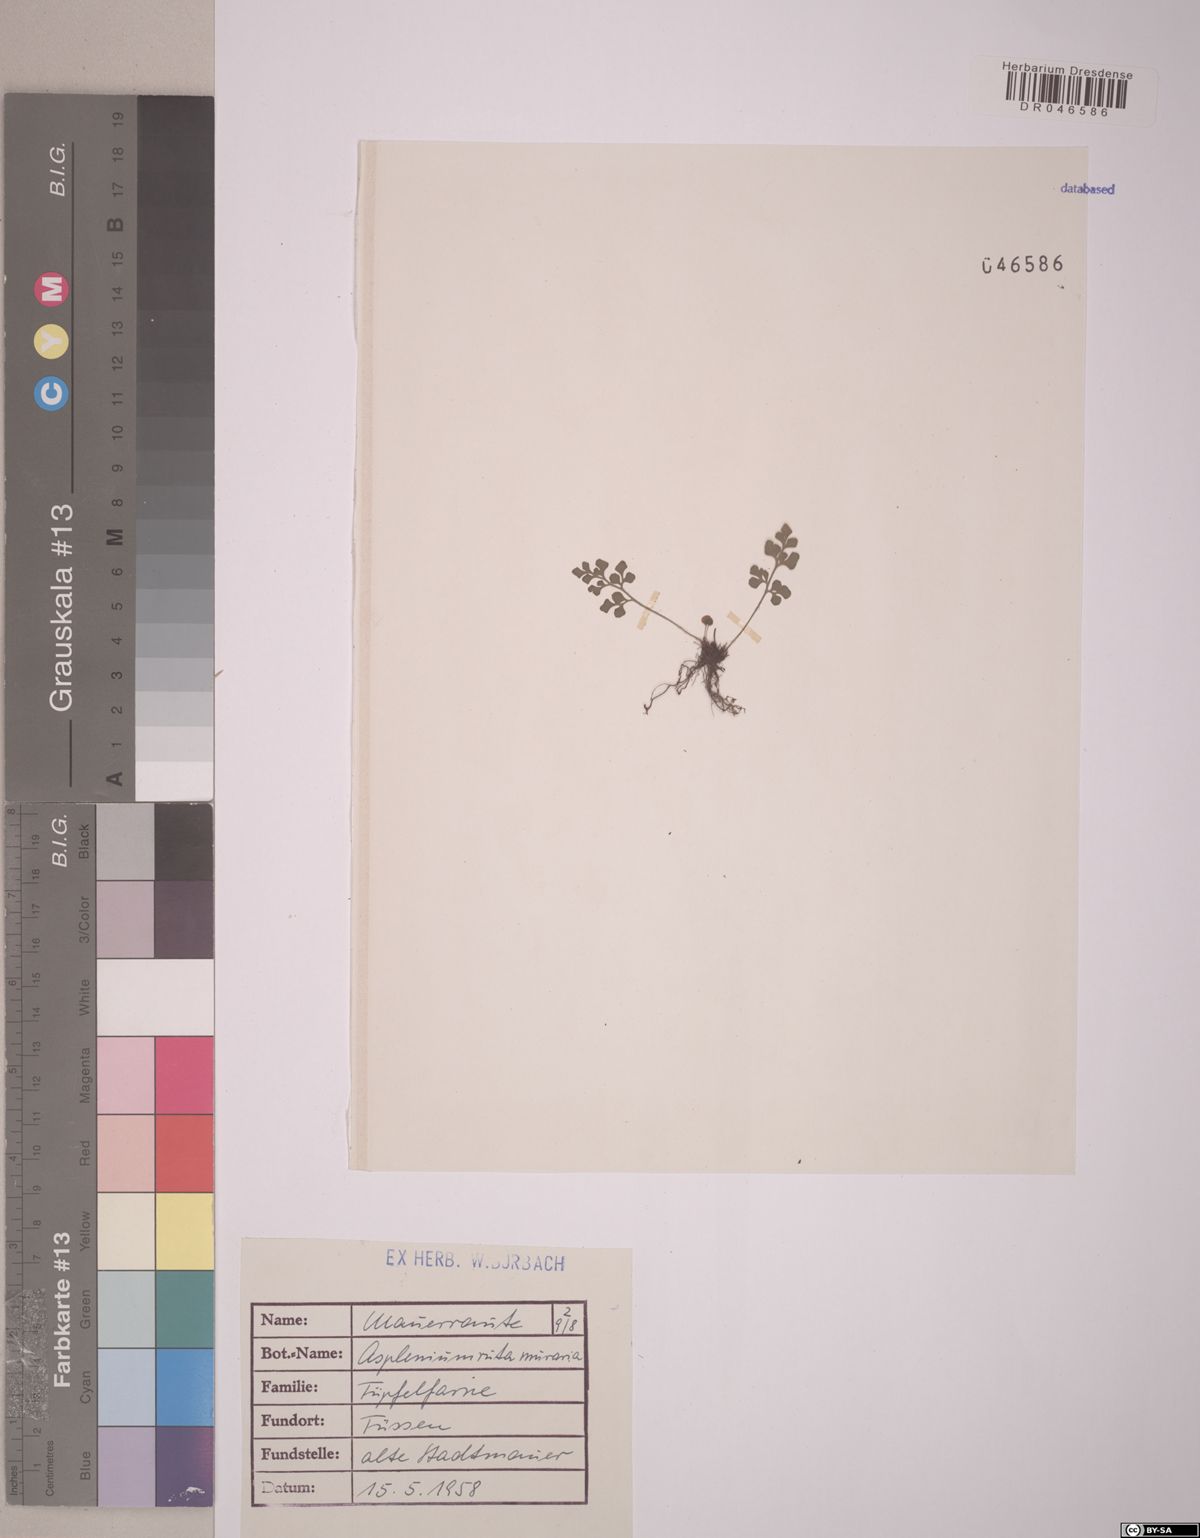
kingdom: Plantae
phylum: Tracheophyta
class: Polypodiopsida
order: Polypodiales
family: Aspleniaceae
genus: Asplenium
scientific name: Asplenium ruta-muraria
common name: Wall-rue
